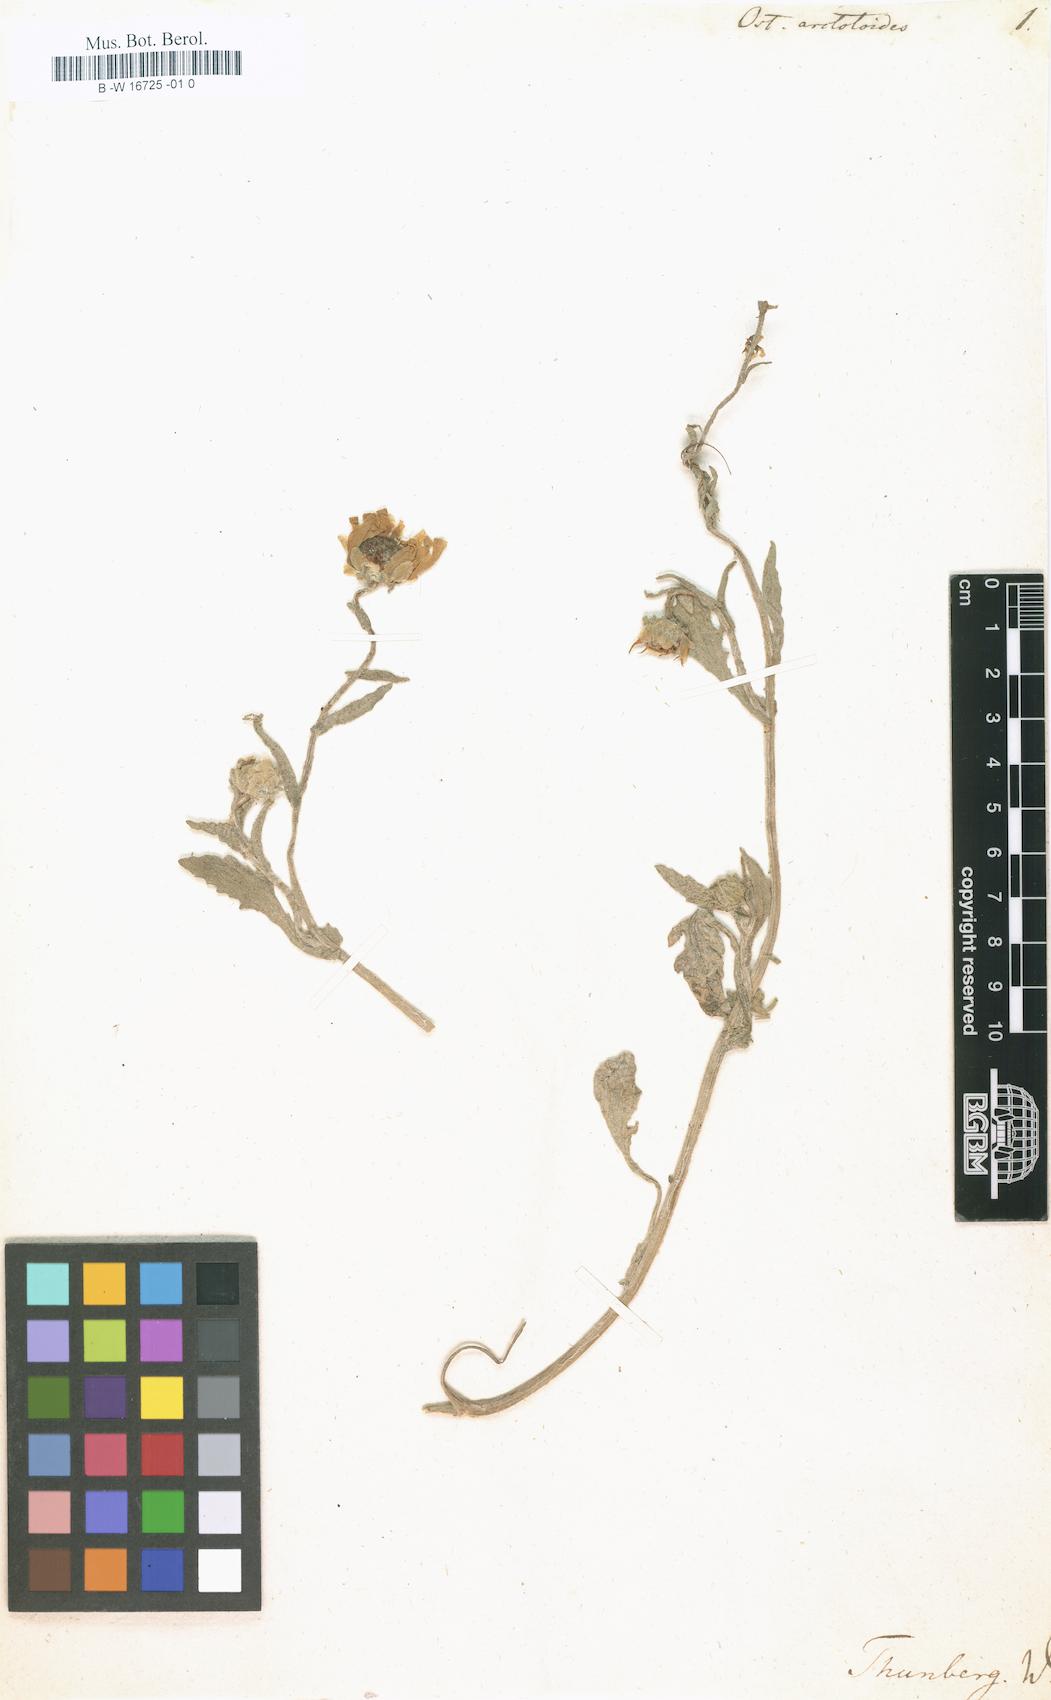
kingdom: Plantae
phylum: Tracheophyta
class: Magnoliopsida
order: Asterales
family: Asteraceae
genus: Osteospermum
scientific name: Osteospermum arctotoides
